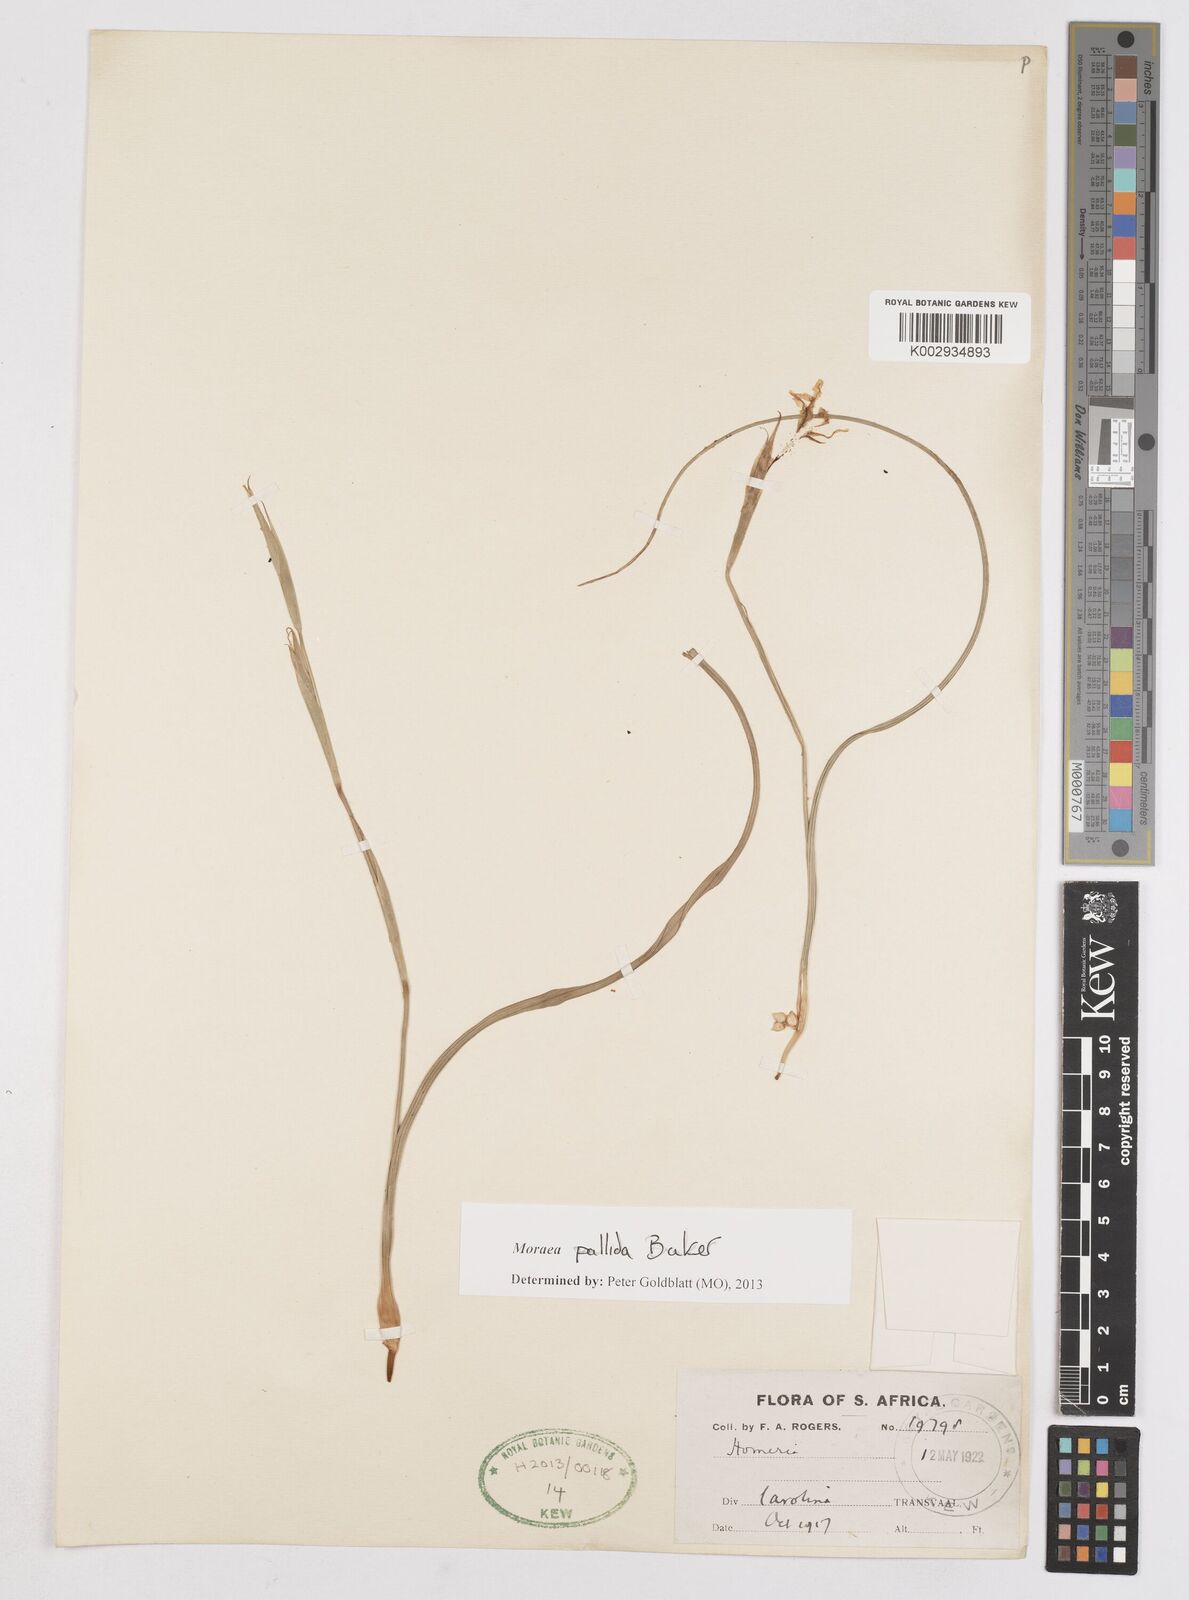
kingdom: Plantae
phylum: Tracheophyta
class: Liliopsida
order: Asparagales
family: Iridaceae
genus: Moraea
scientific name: Moraea pallida
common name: Yellow tulp
